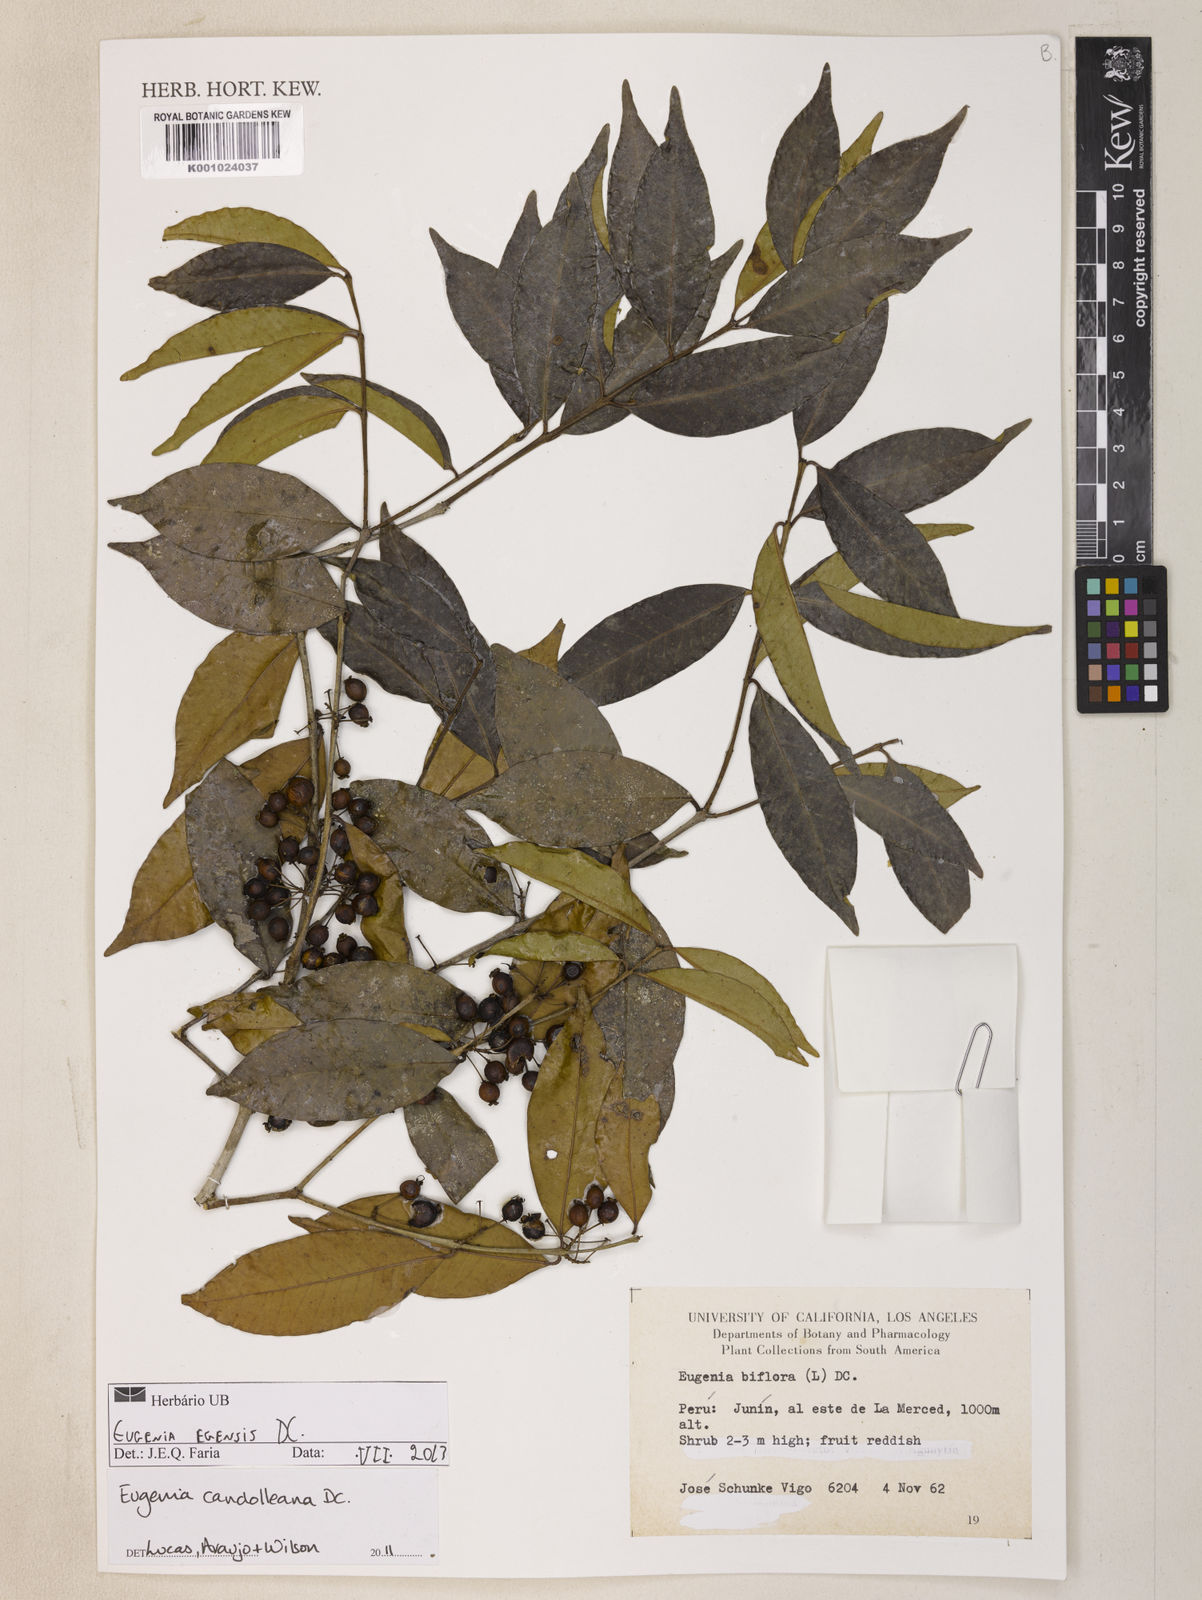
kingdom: Plantae
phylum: Tracheophyta
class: Magnoliopsida
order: Myrtales
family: Myrtaceae
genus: Eugenia
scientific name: Eugenia egensis
